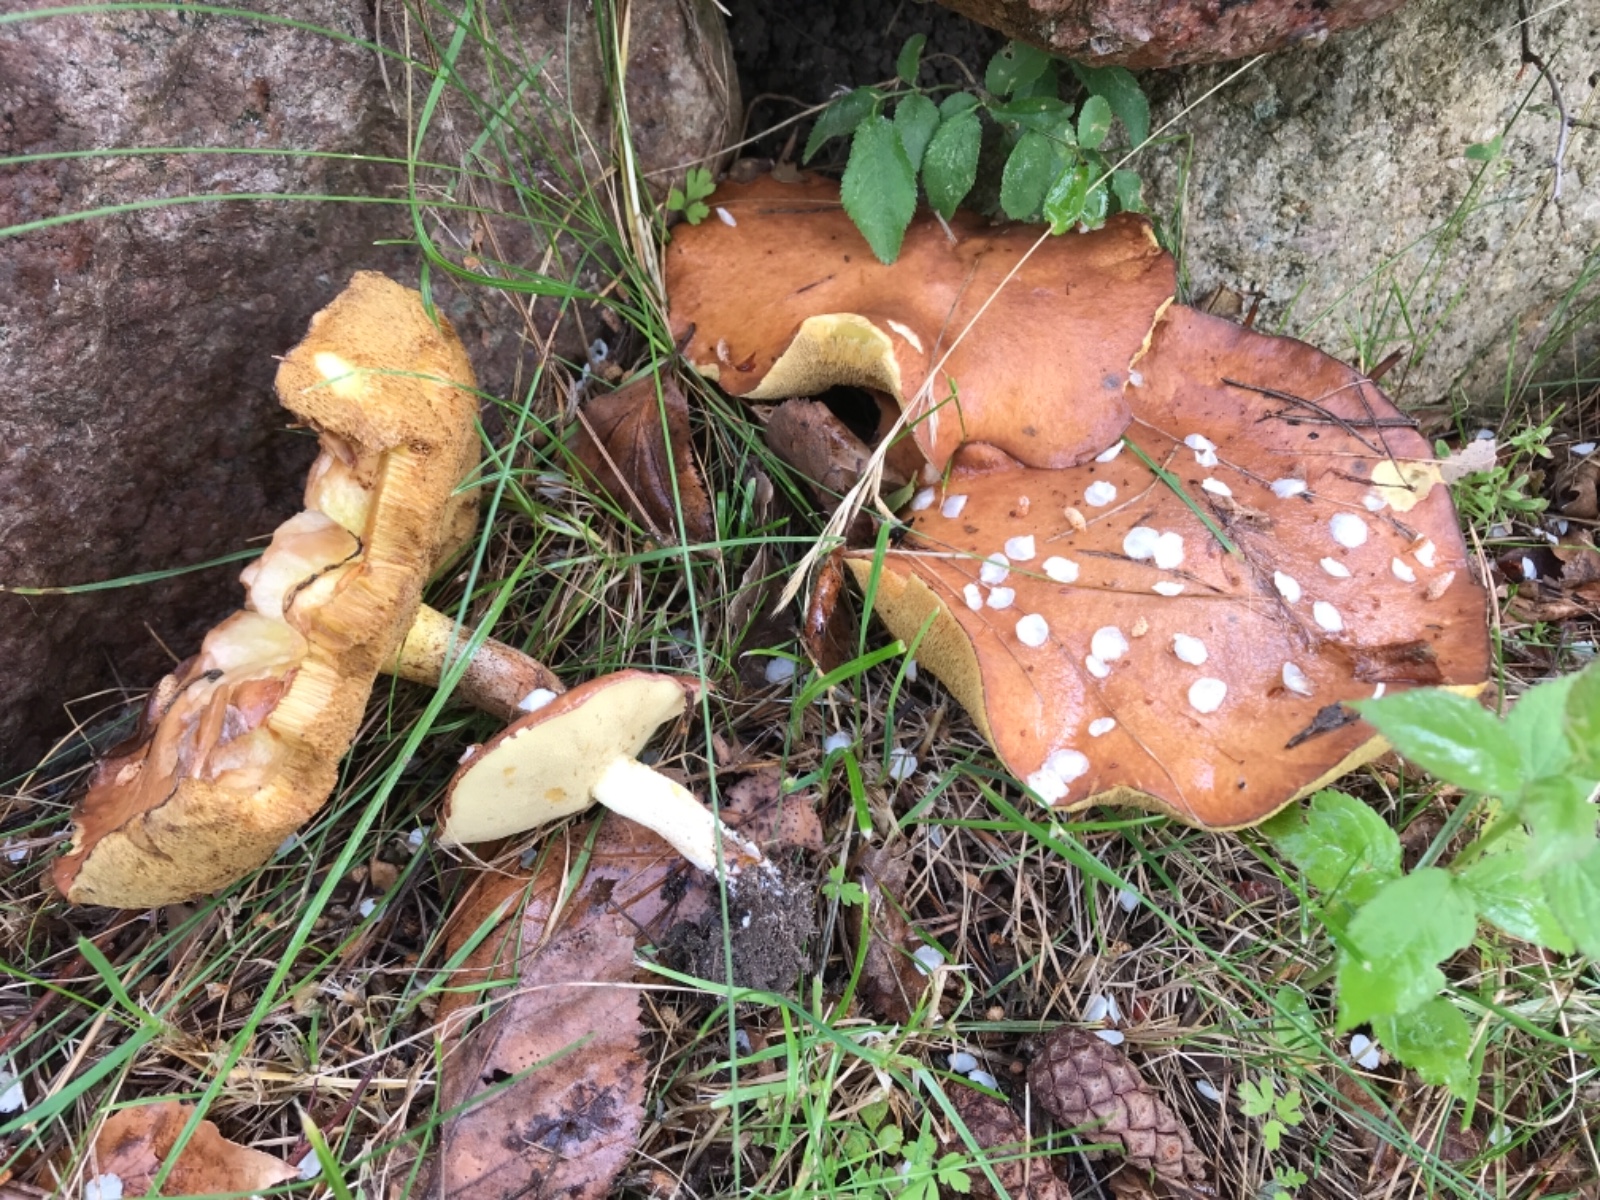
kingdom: Fungi
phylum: Basidiomycota
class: Agaricomycetes
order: Boletales
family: Suillaceae
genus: Suillus
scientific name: Suillus granulatus
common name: kornet slimrørhat
